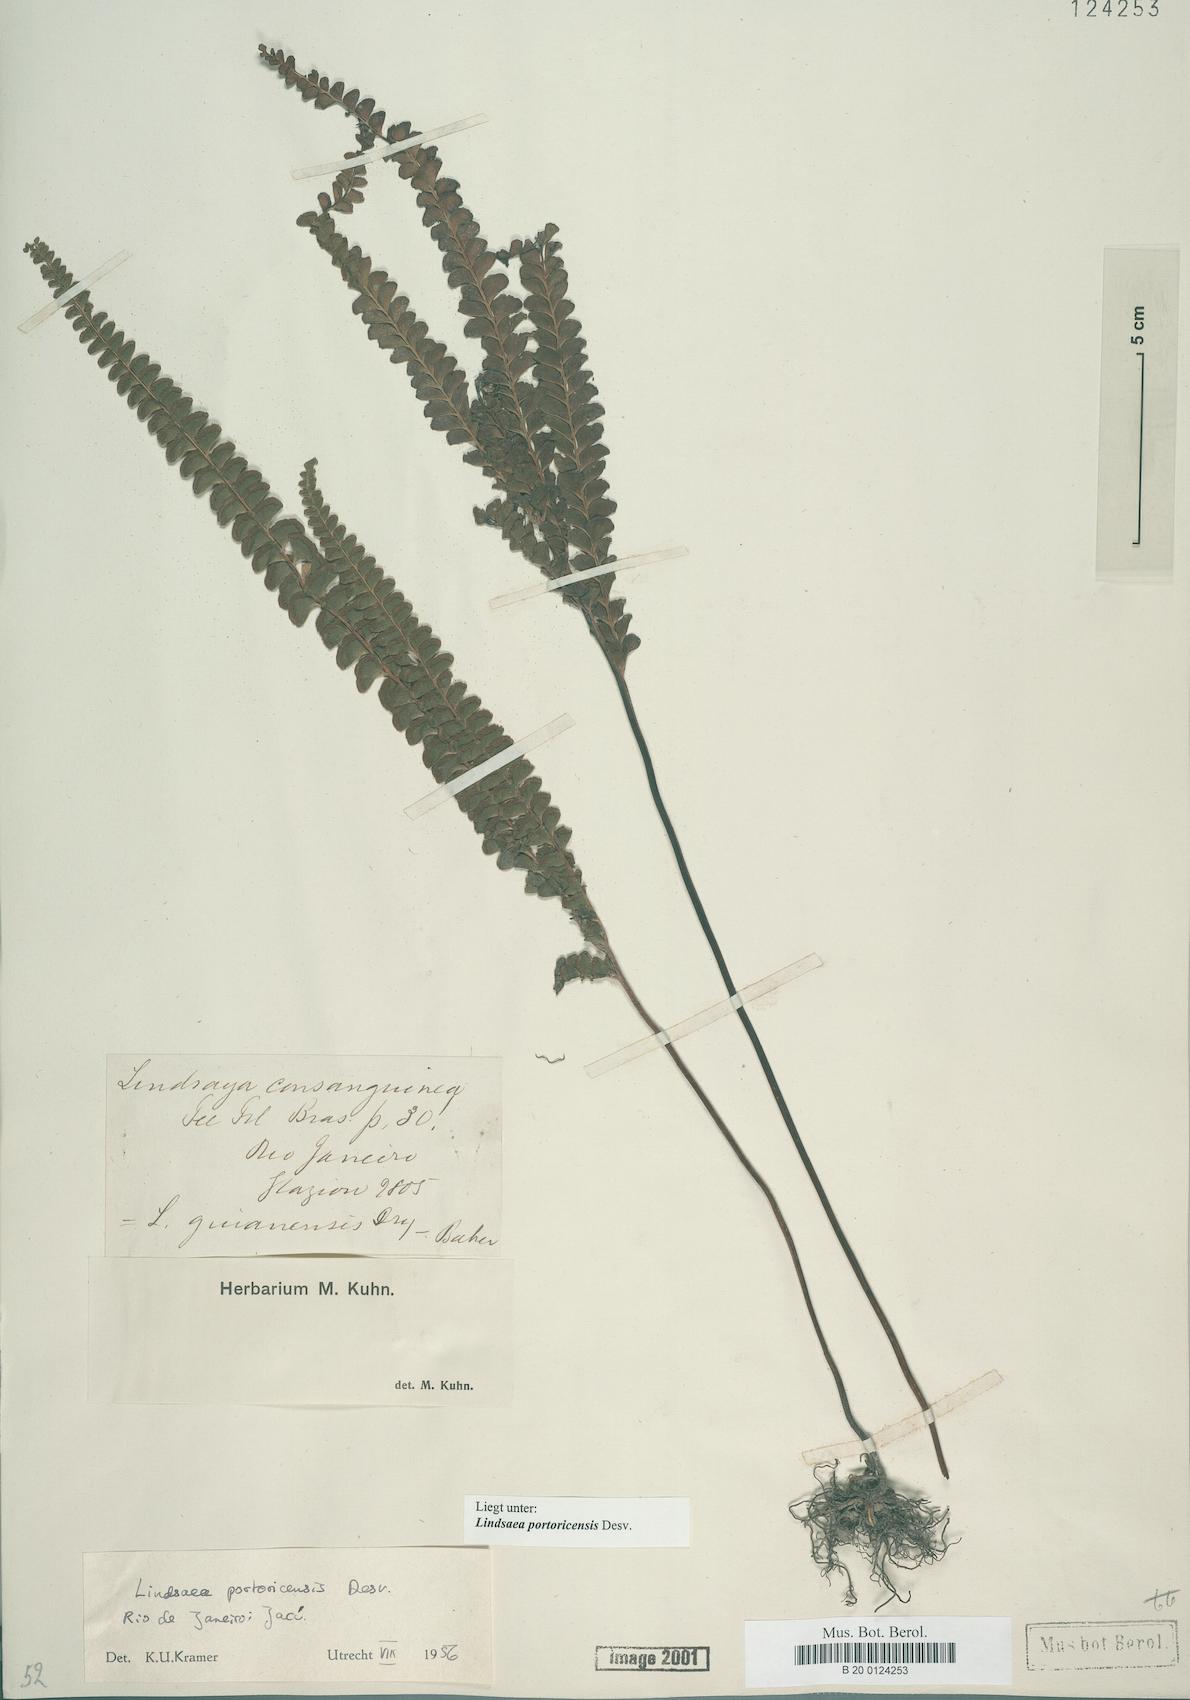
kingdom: Plantae
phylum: Tracheophyta
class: Polypodiopsida
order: Polypodiales
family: Lindsaeaceae
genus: Lindsaea
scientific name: Lindsaea portoricensis
